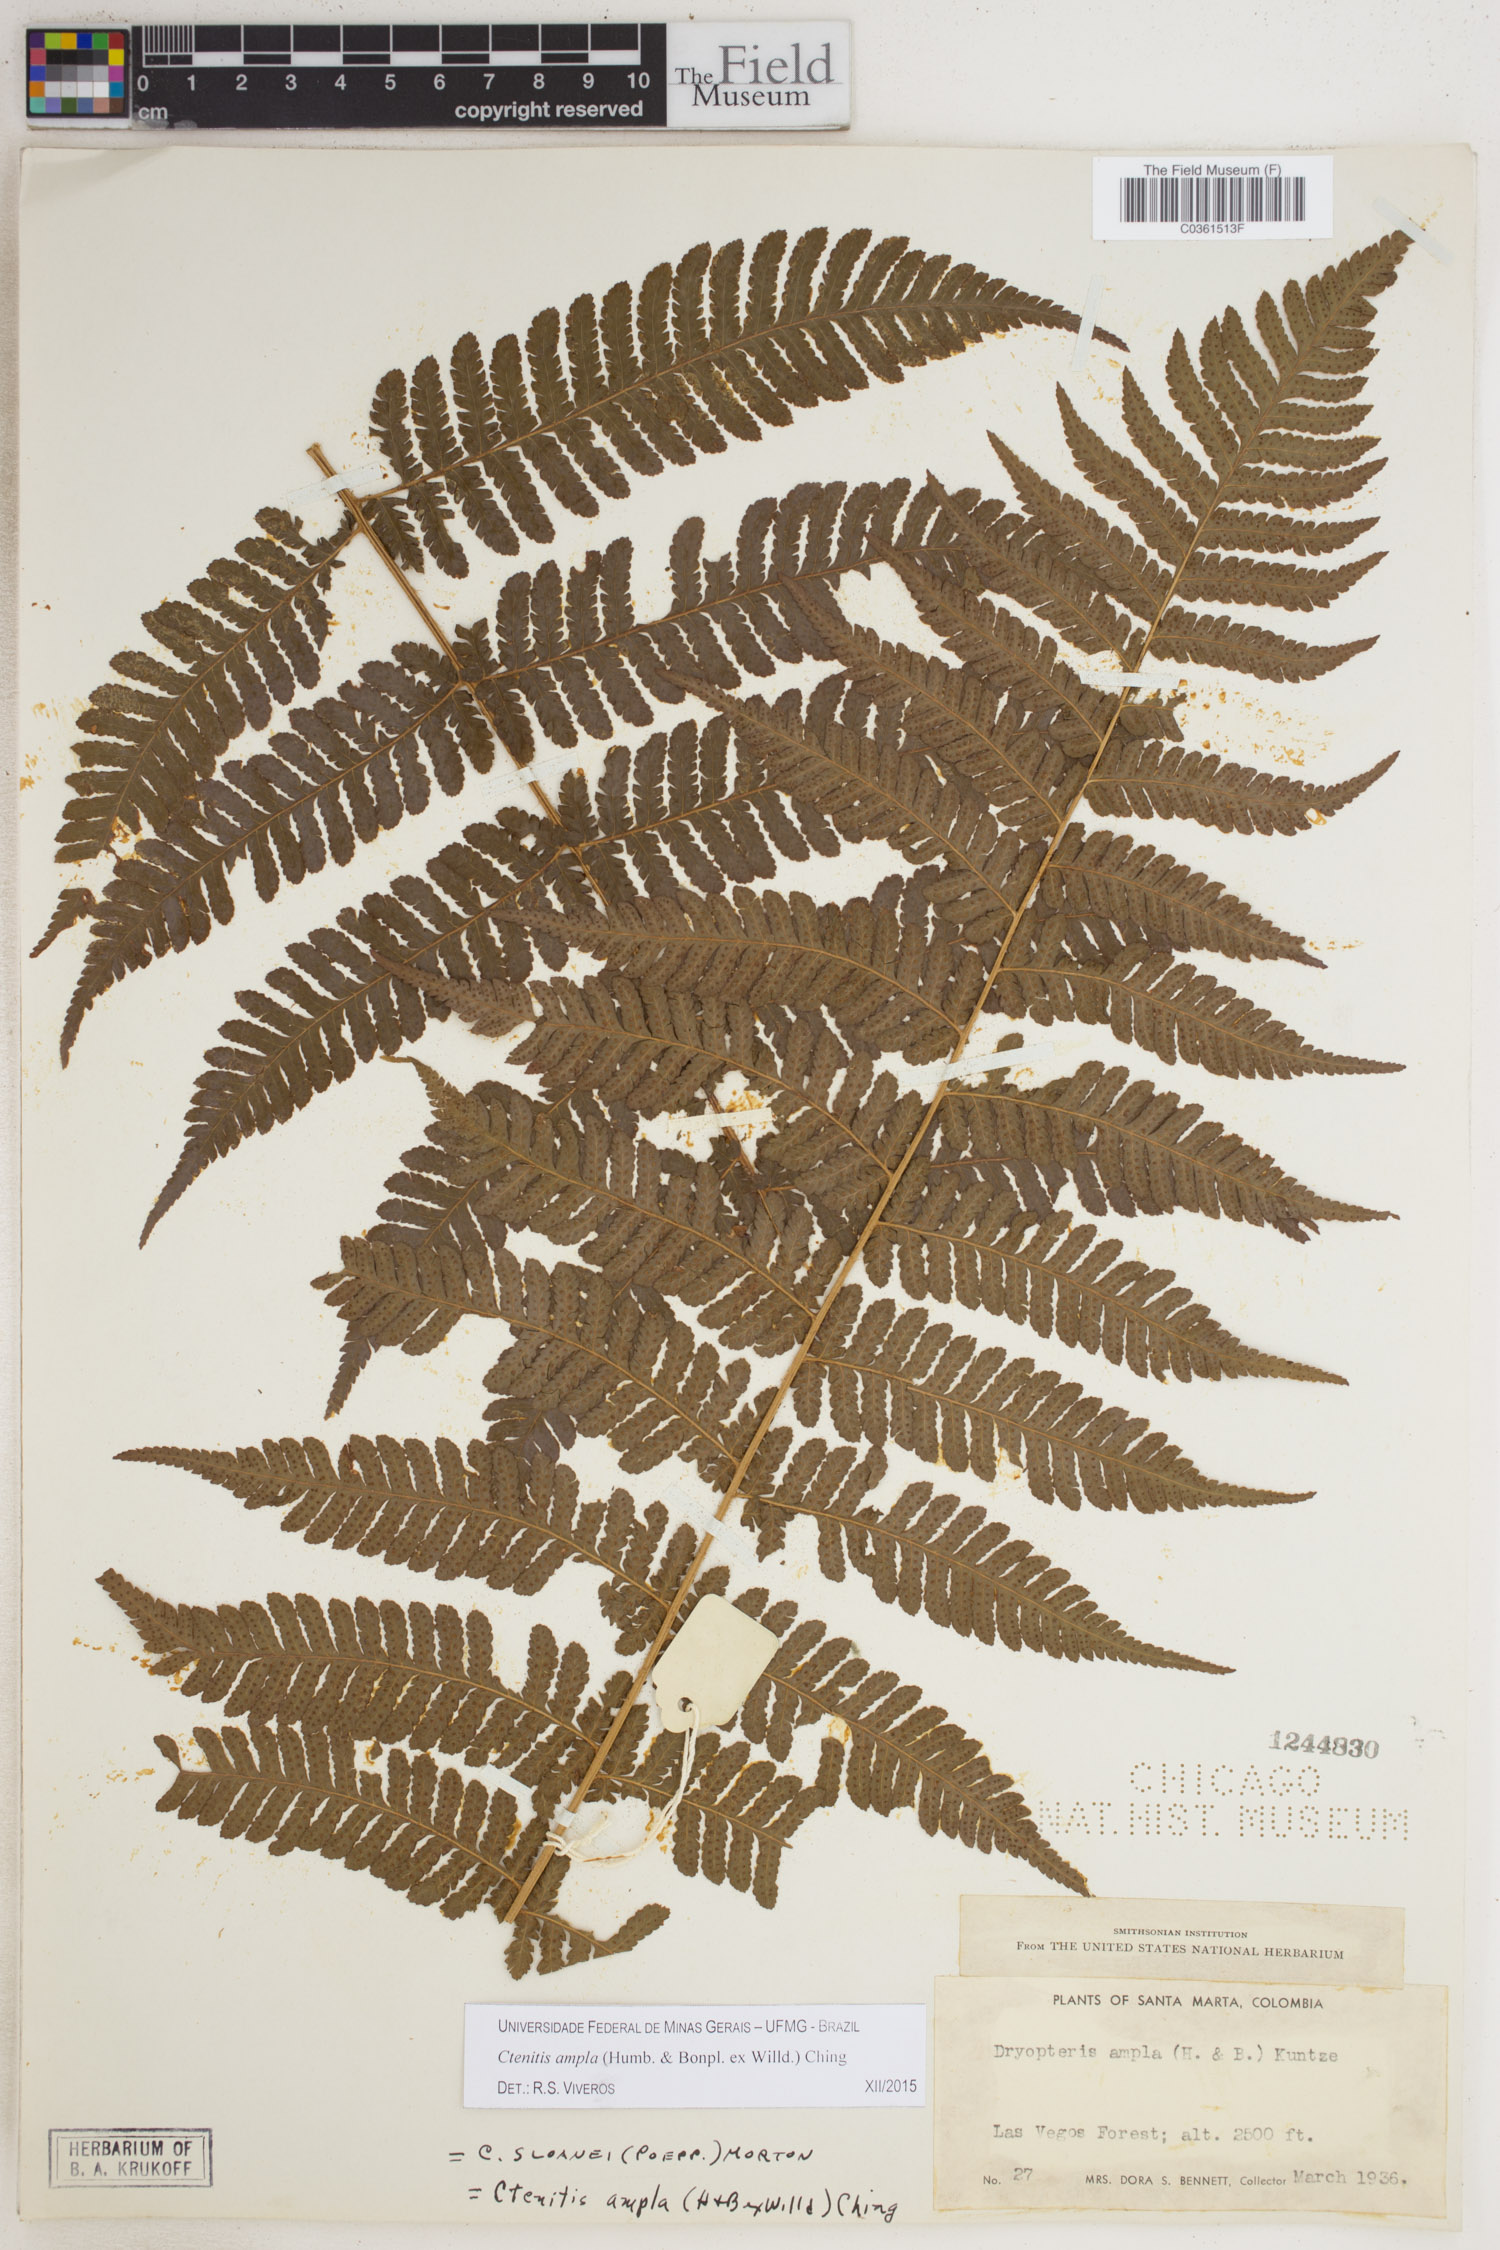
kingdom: Plantae
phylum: Tracheophyta
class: Polypodiopsida
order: Polypodiales
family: Dryopteridaceae
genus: Ctenitis
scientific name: Ctenitis sloanei
